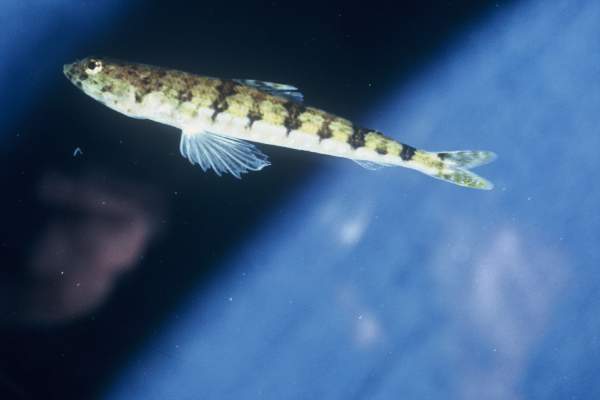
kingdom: Animalia
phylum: Chordata
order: Aulopiformes
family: Synodontidae
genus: Synodus
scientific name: Synodus dermatogenys
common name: Banded lizardfish
